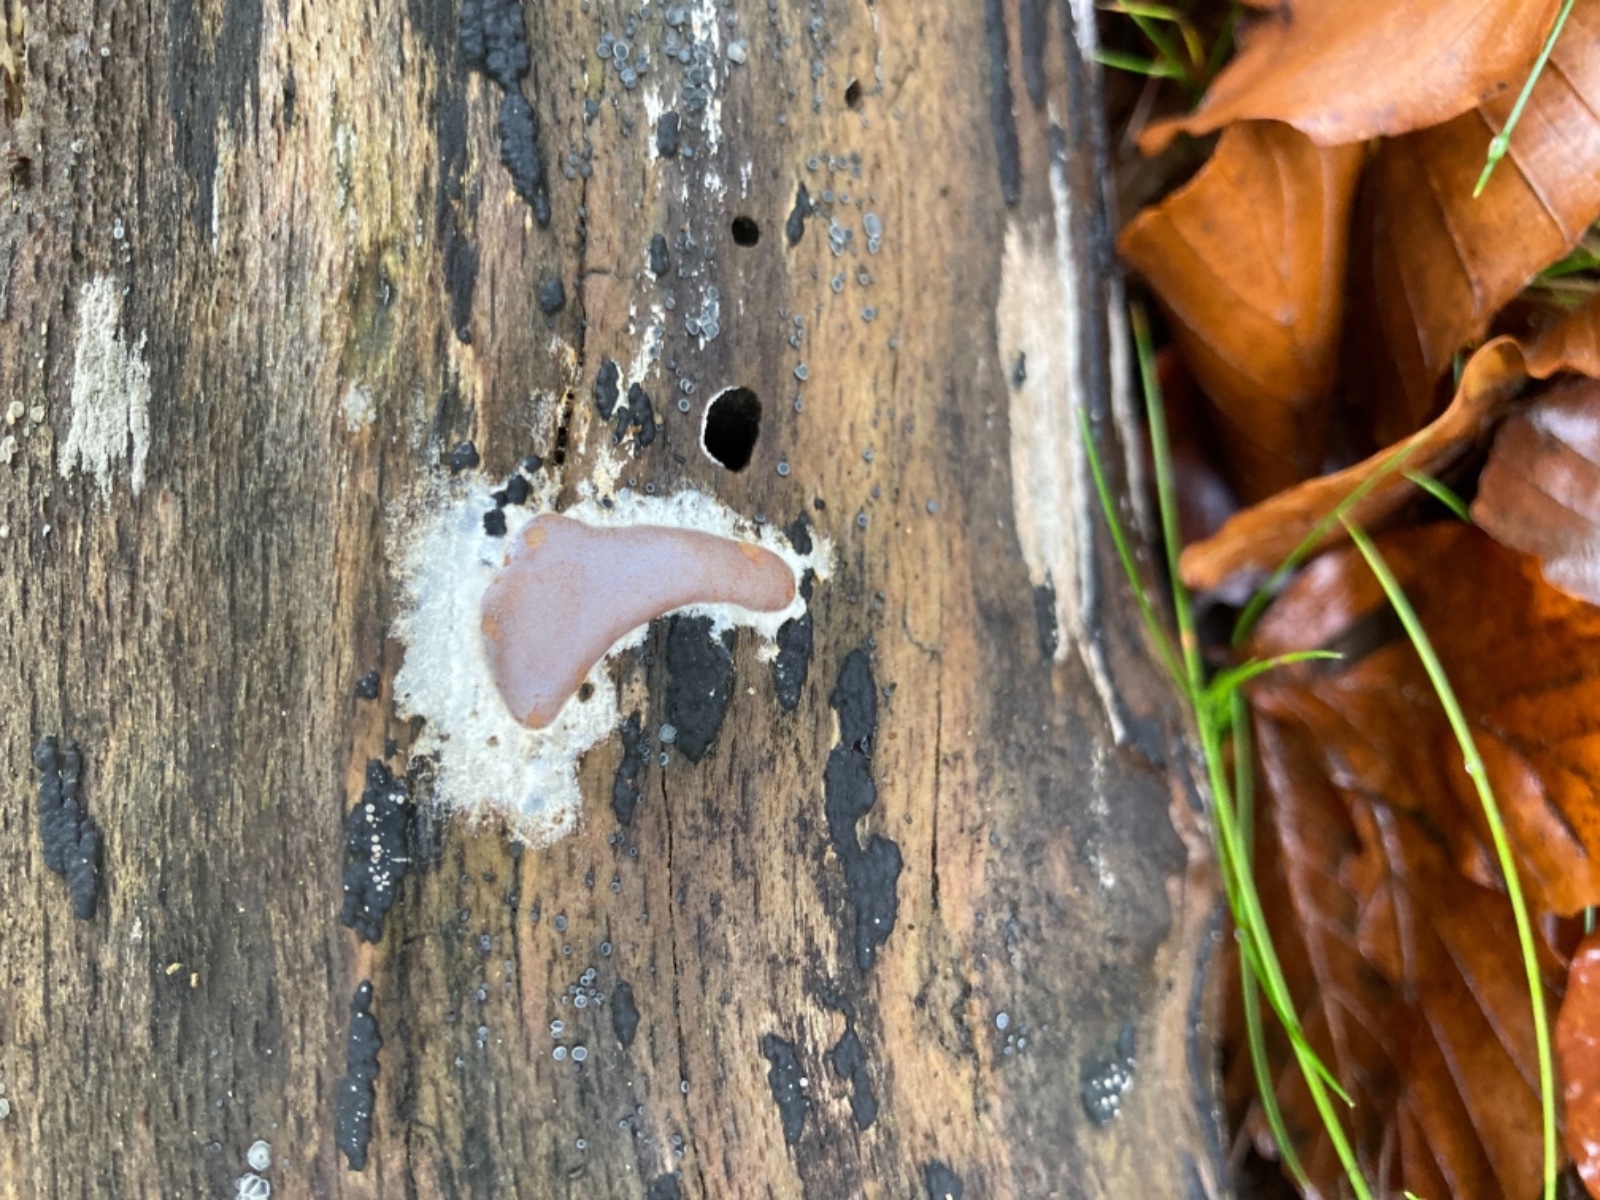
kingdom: Protozoa
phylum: Mycetozoa
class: Myxomycetes
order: Trichiales
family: Dictydiaethaliaceae
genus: Dictydiaethalium
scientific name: Dictydiaethalium plumbeum
